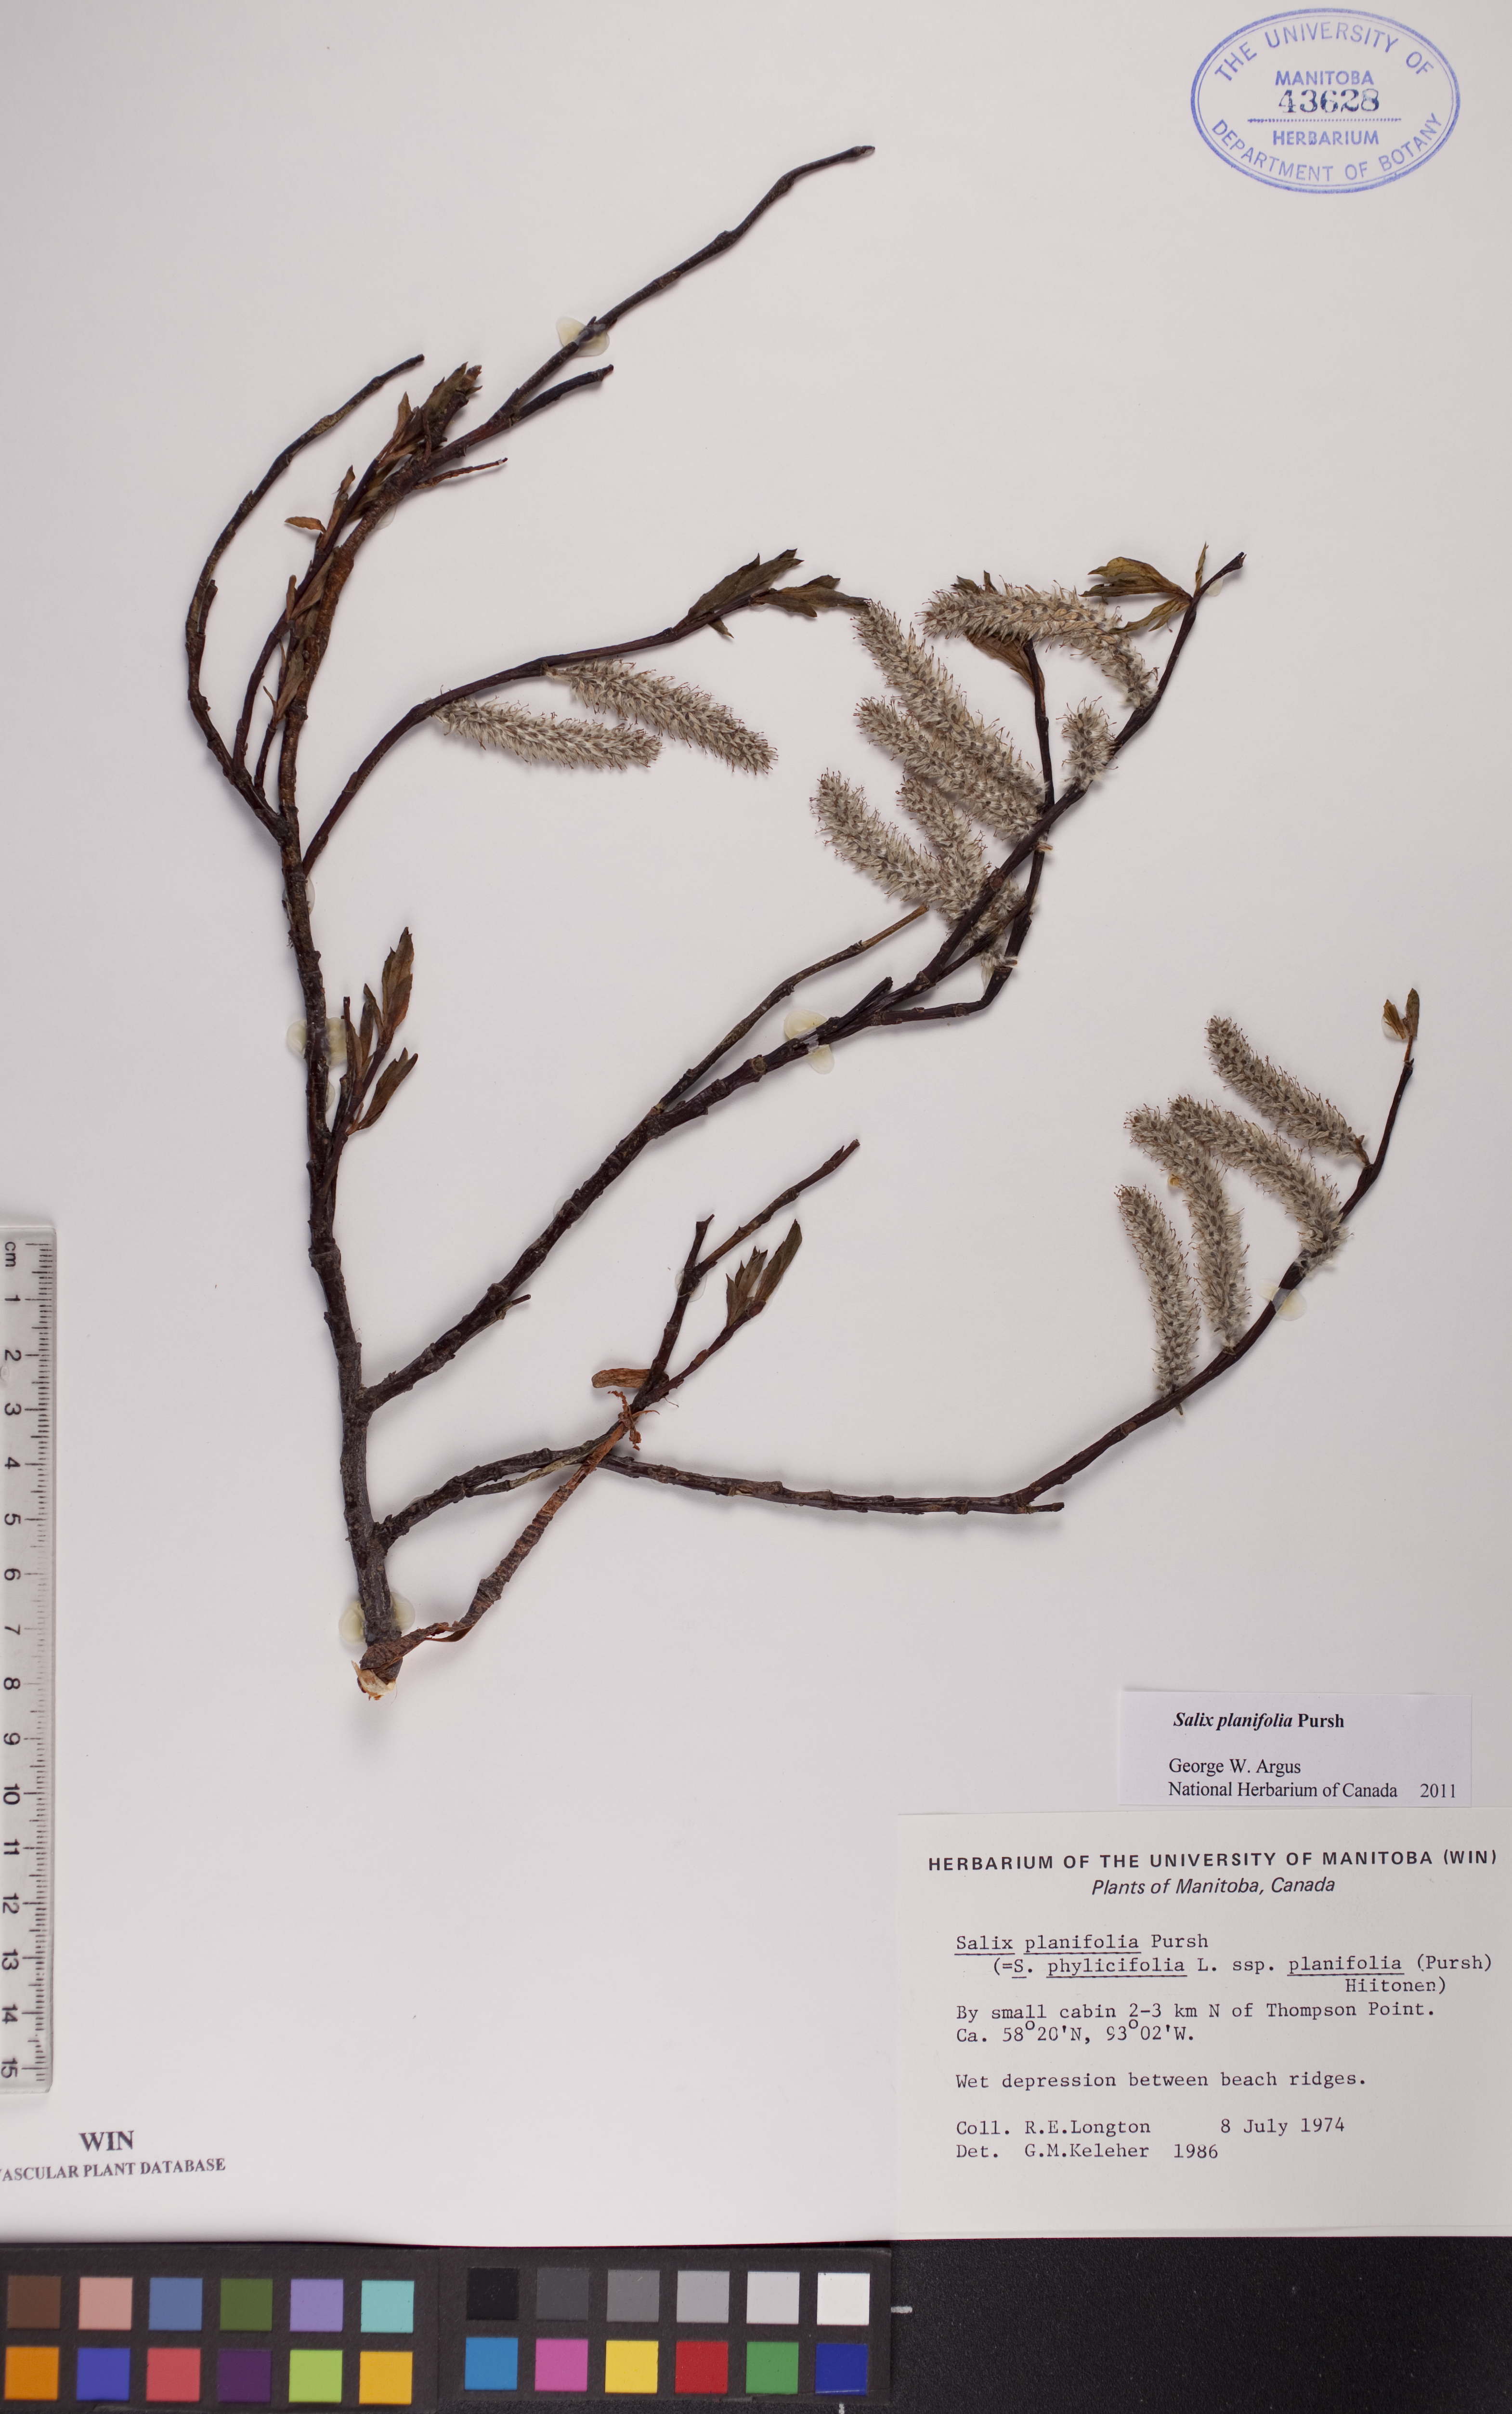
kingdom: Plantae
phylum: Tracheophyta
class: Magnoliopsida
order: Malpighiales
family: Salicaceae
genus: Salix
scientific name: Salix planifolia
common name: Mountain willow
